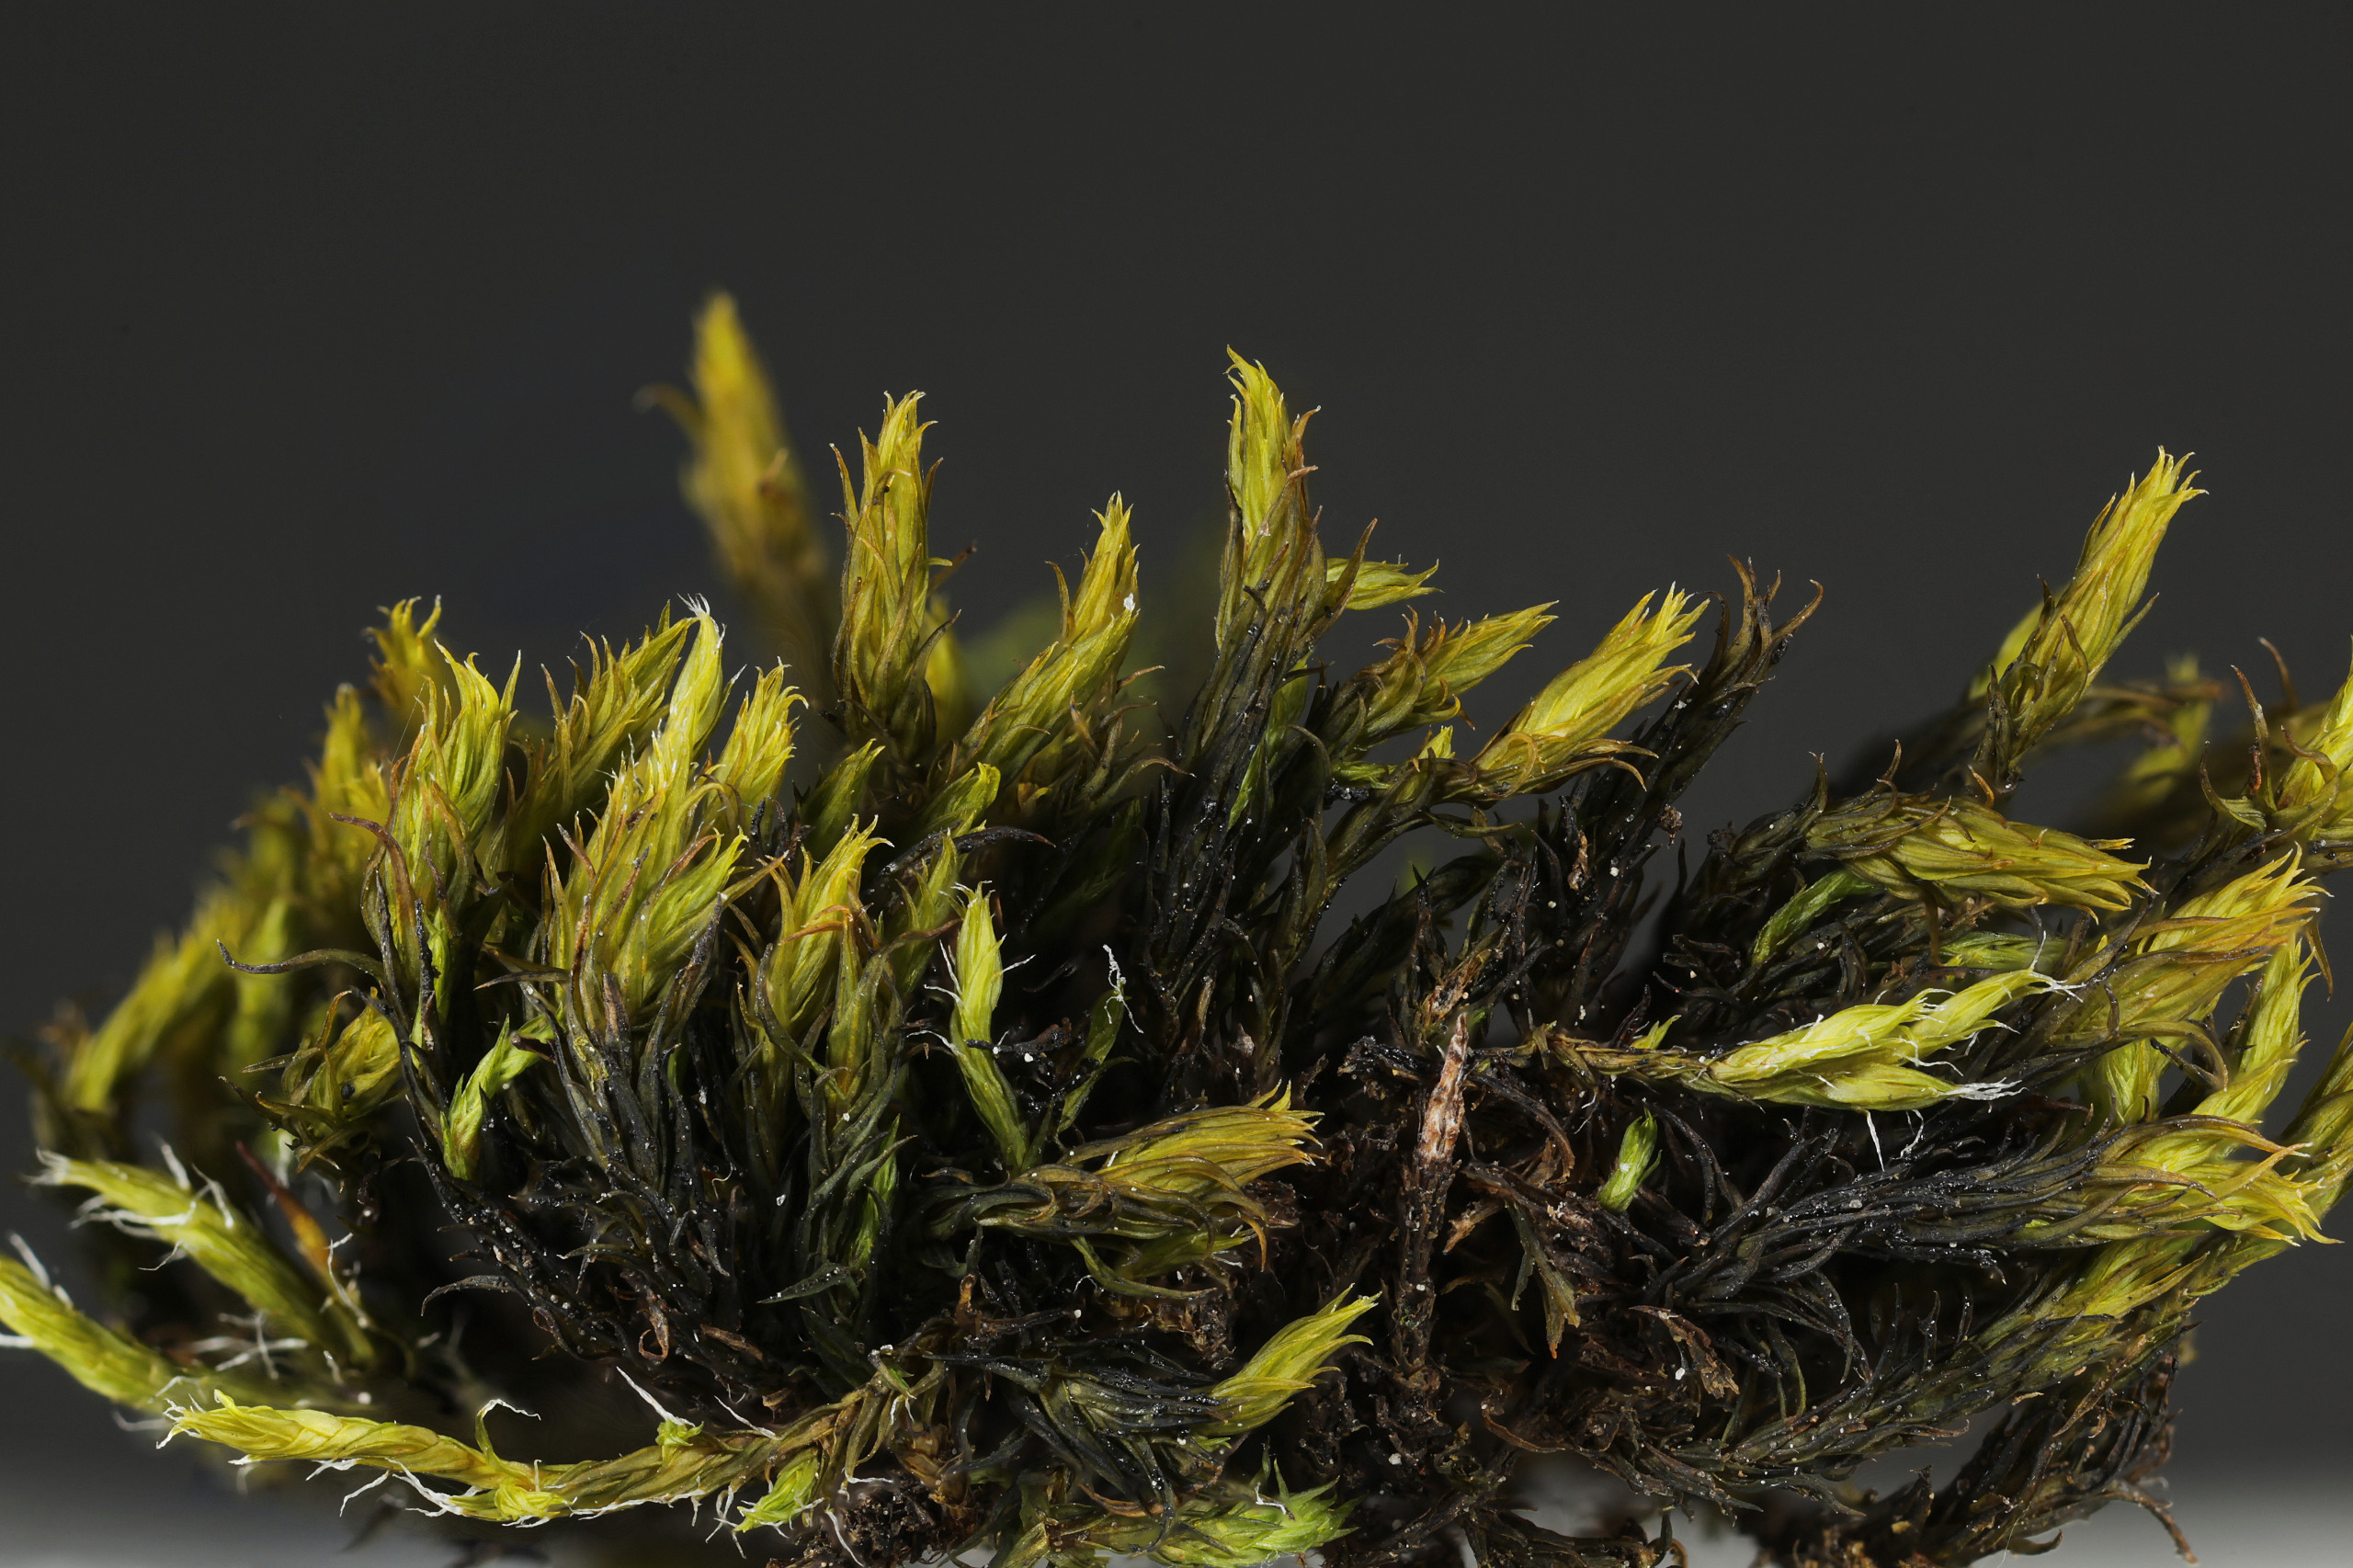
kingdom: Plantae
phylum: Bryophyta
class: Bryopsida
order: Grimmiales
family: Grimmiaceae
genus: Grimmia
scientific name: Grimmia ramondii
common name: Våd lamelmos
